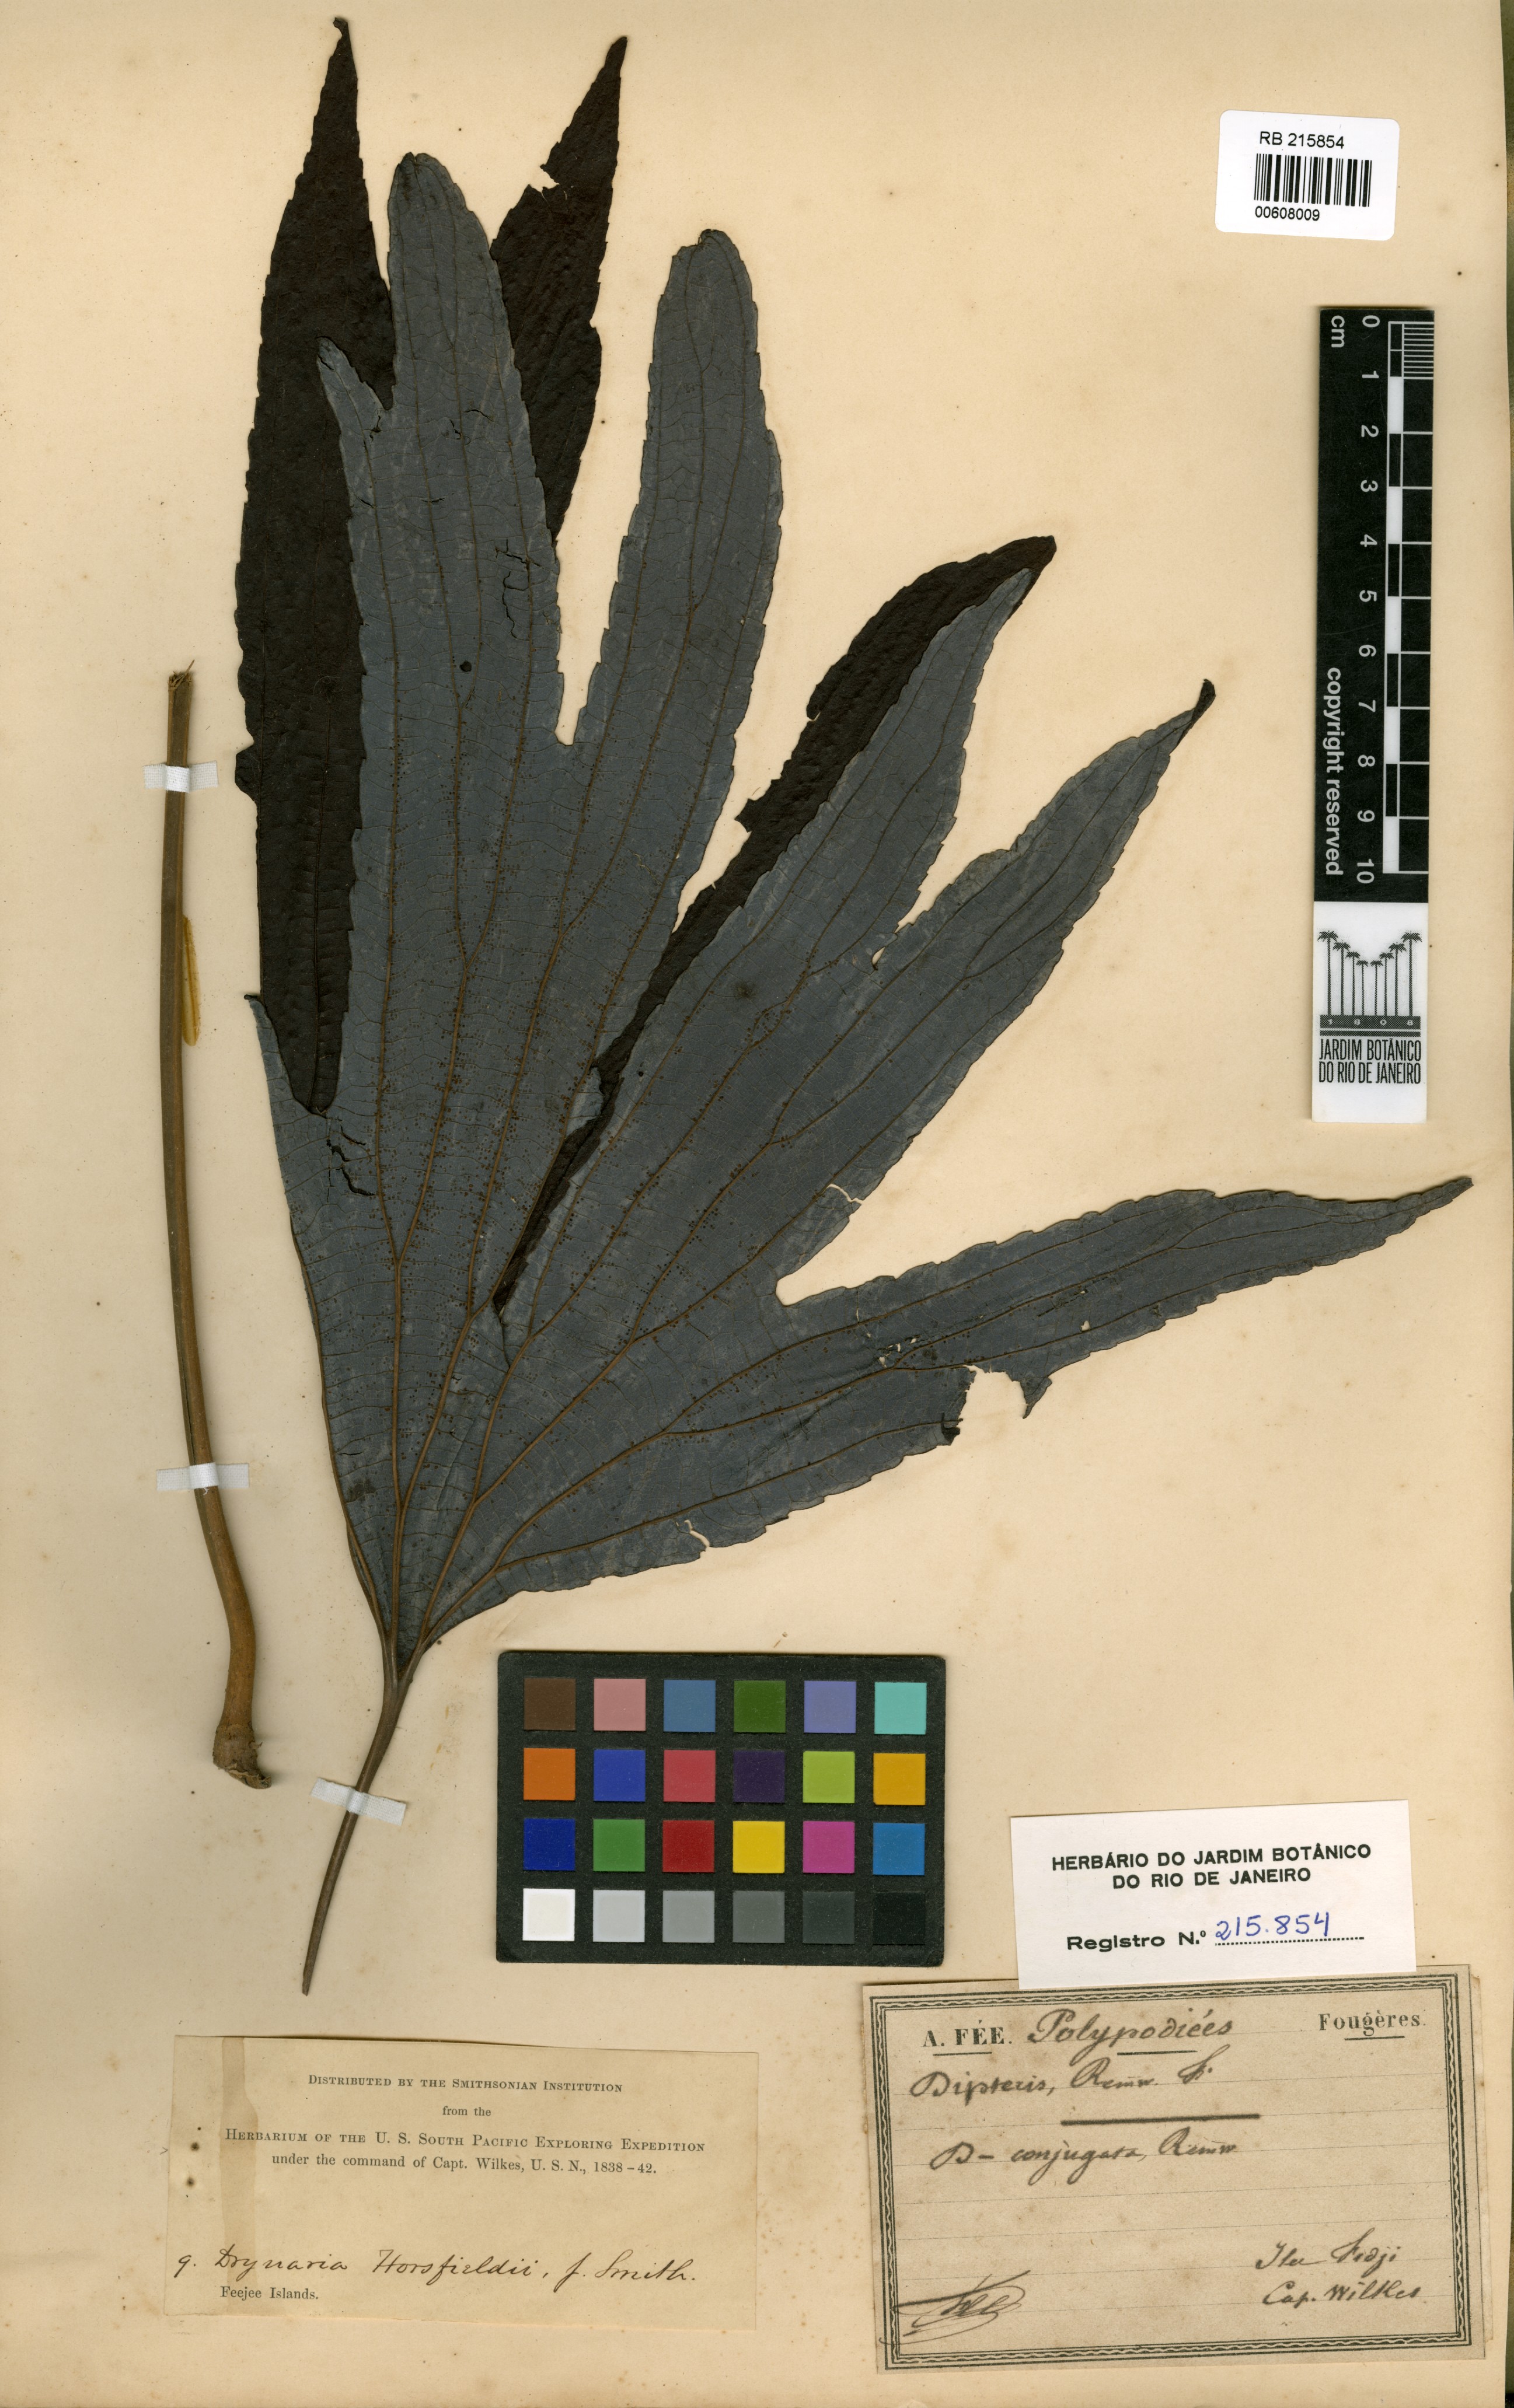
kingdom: Plantae
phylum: Tracheophyta
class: Polypodiopsida
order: Gleicheniales
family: Dipteridaceae
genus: Dipteris
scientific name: Dipteris conjugata
